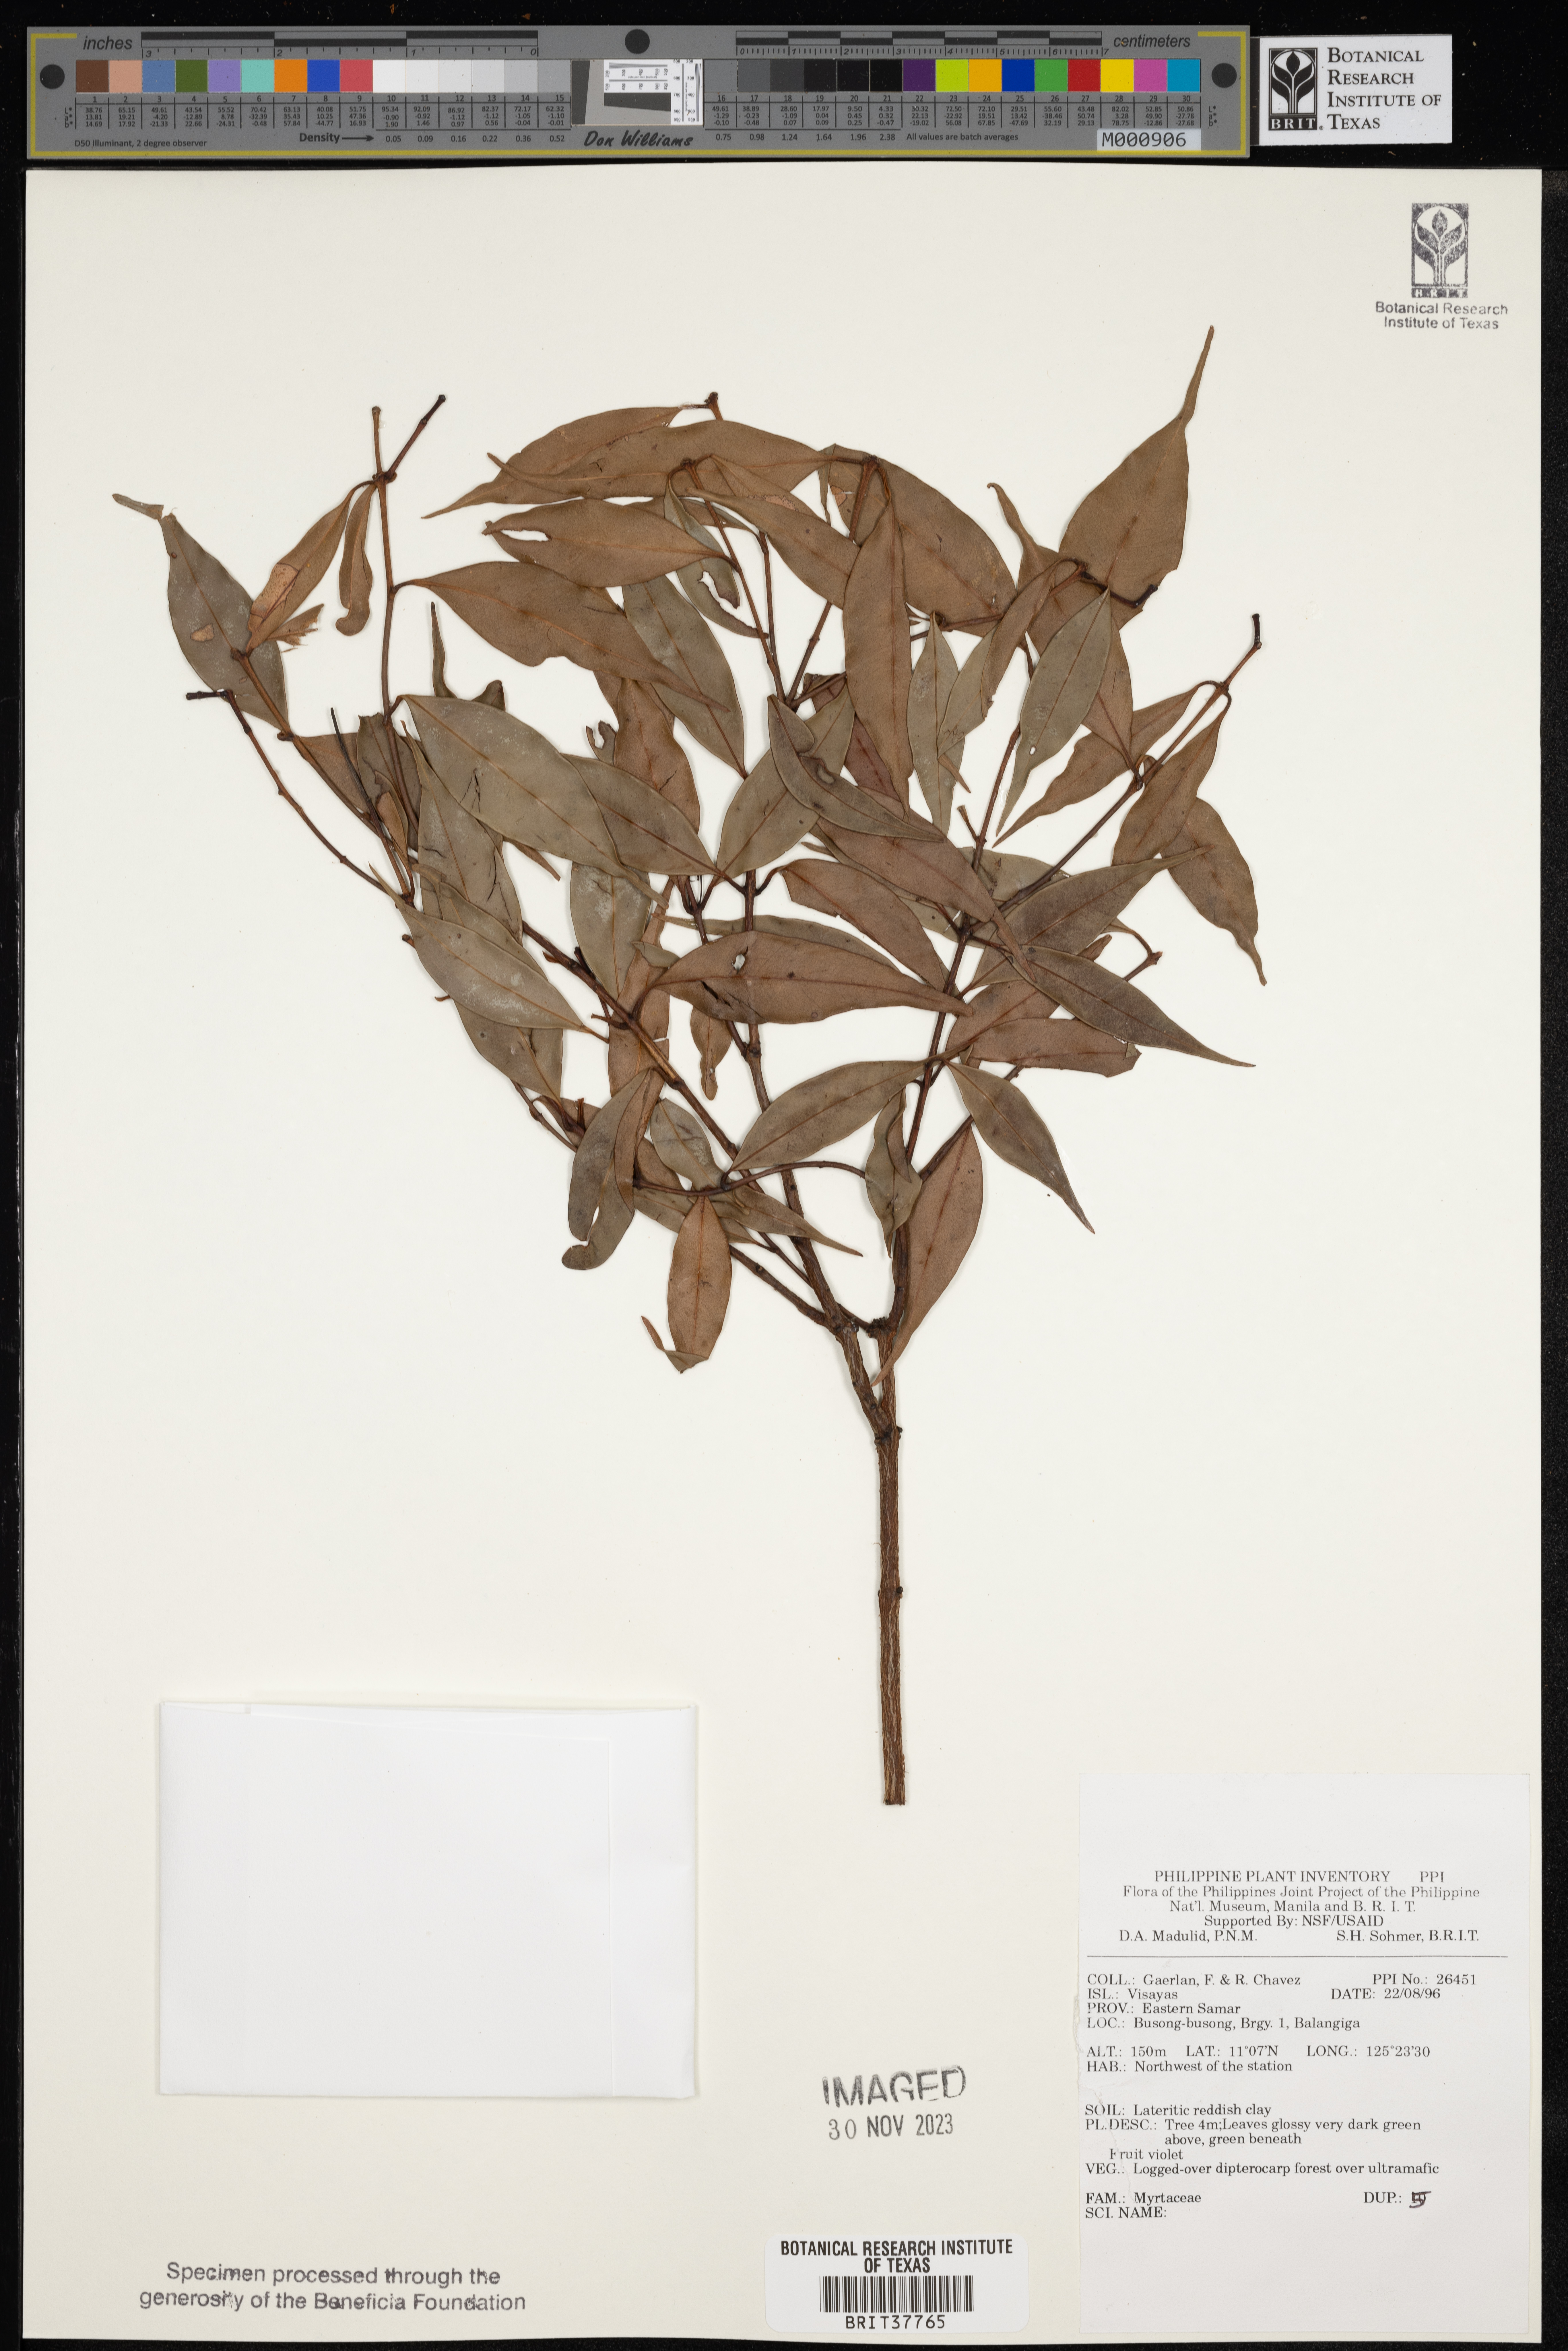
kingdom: Plantae
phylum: Tracheophyta
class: Magnoliopsida
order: Myrtales
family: Myrtaceae
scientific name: Myrtaceae
